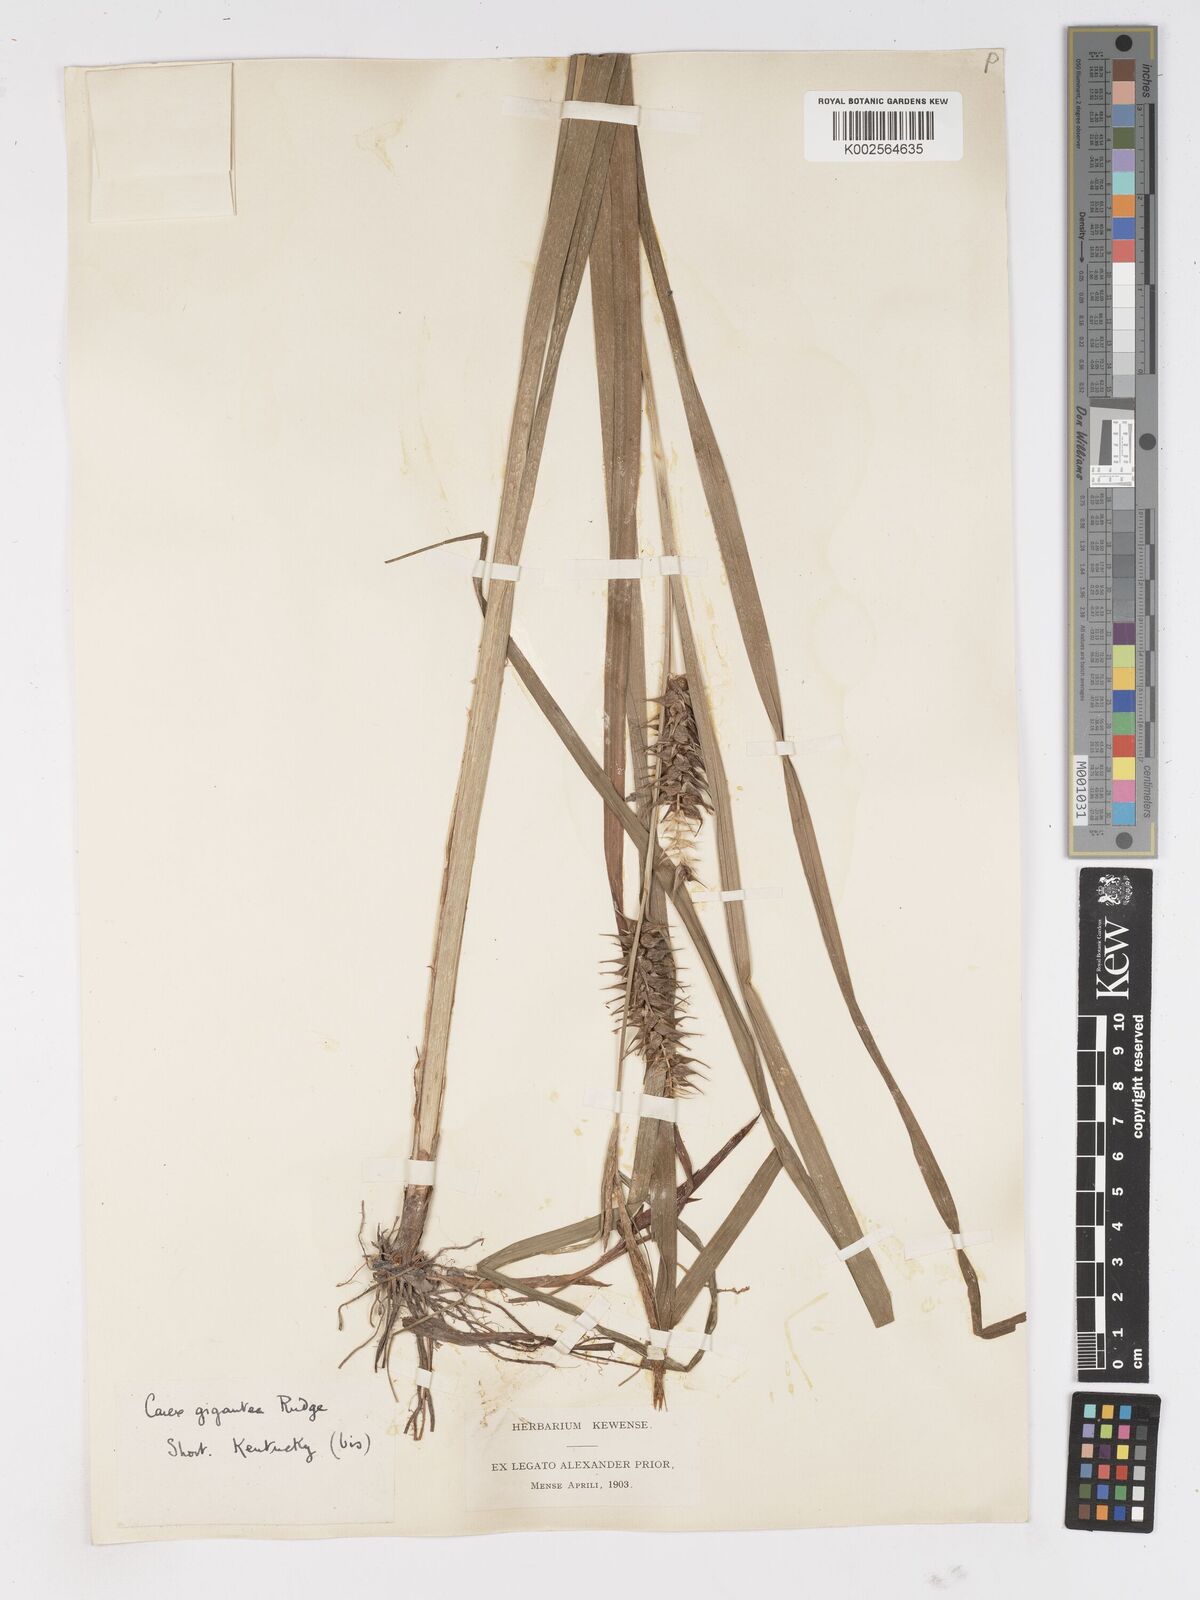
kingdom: Plantae
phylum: Tracheophyta
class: Liliopsida
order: Poales
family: Cyperaceae
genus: Carex
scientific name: Carex gigantea
